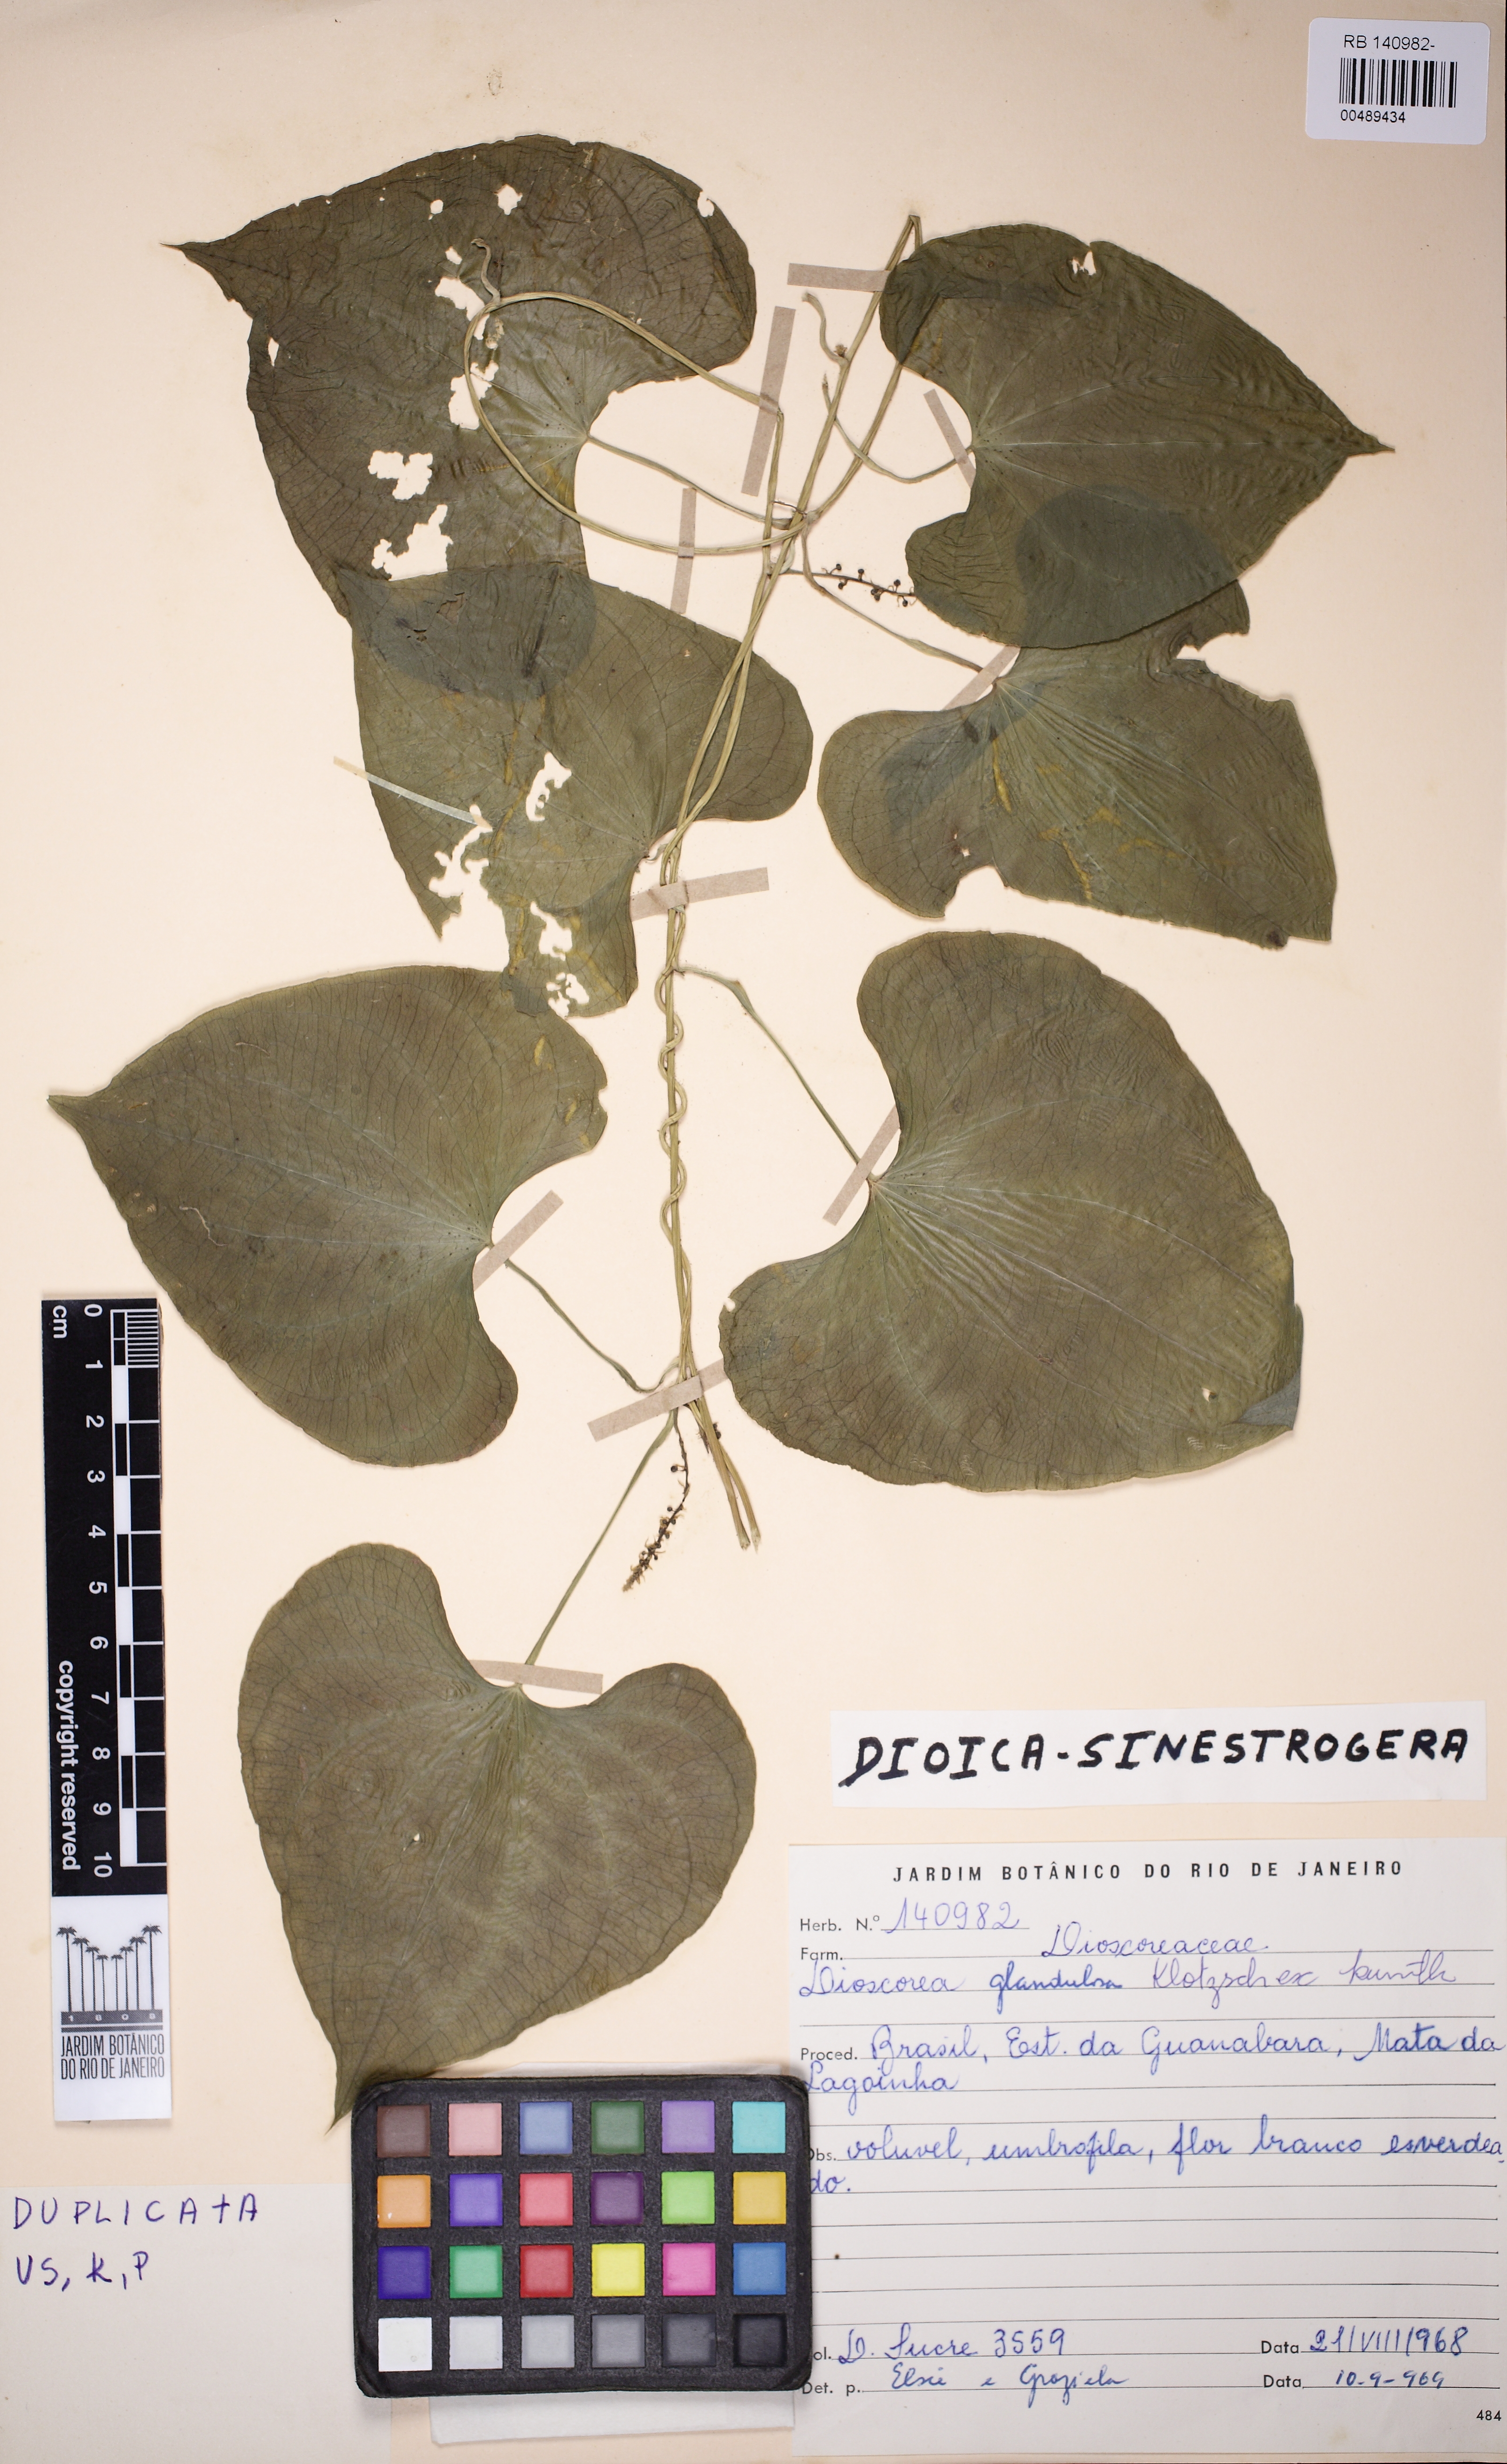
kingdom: Plantae
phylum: Tracheophyta
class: Liliopsida
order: Dioscoreales
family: Dioscoreaceae
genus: Dioscorea
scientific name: Dioscorea piperifolia
